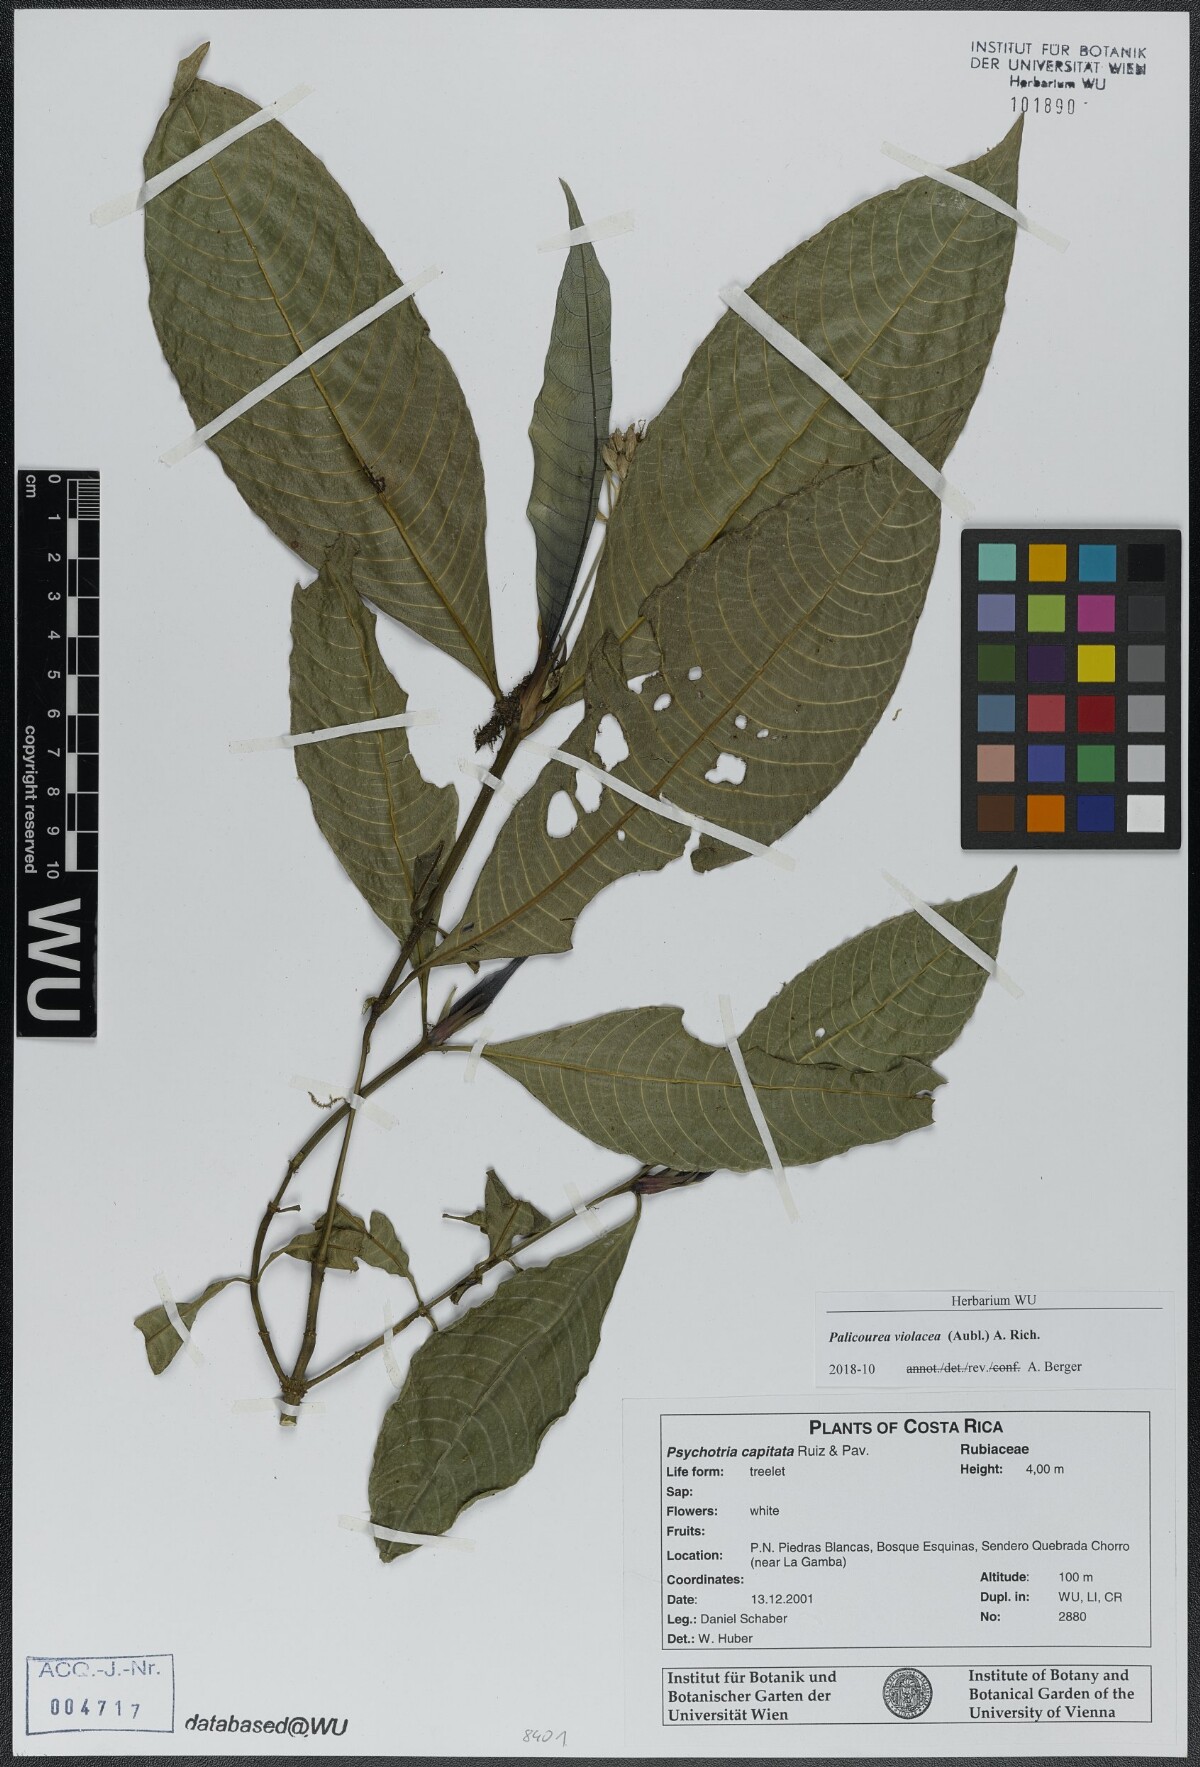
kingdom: Plantae
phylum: Tracheophyta
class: Magnoliopsida
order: Gentianales
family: Rubiaceae
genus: Palicourea
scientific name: Palicourea violacea
